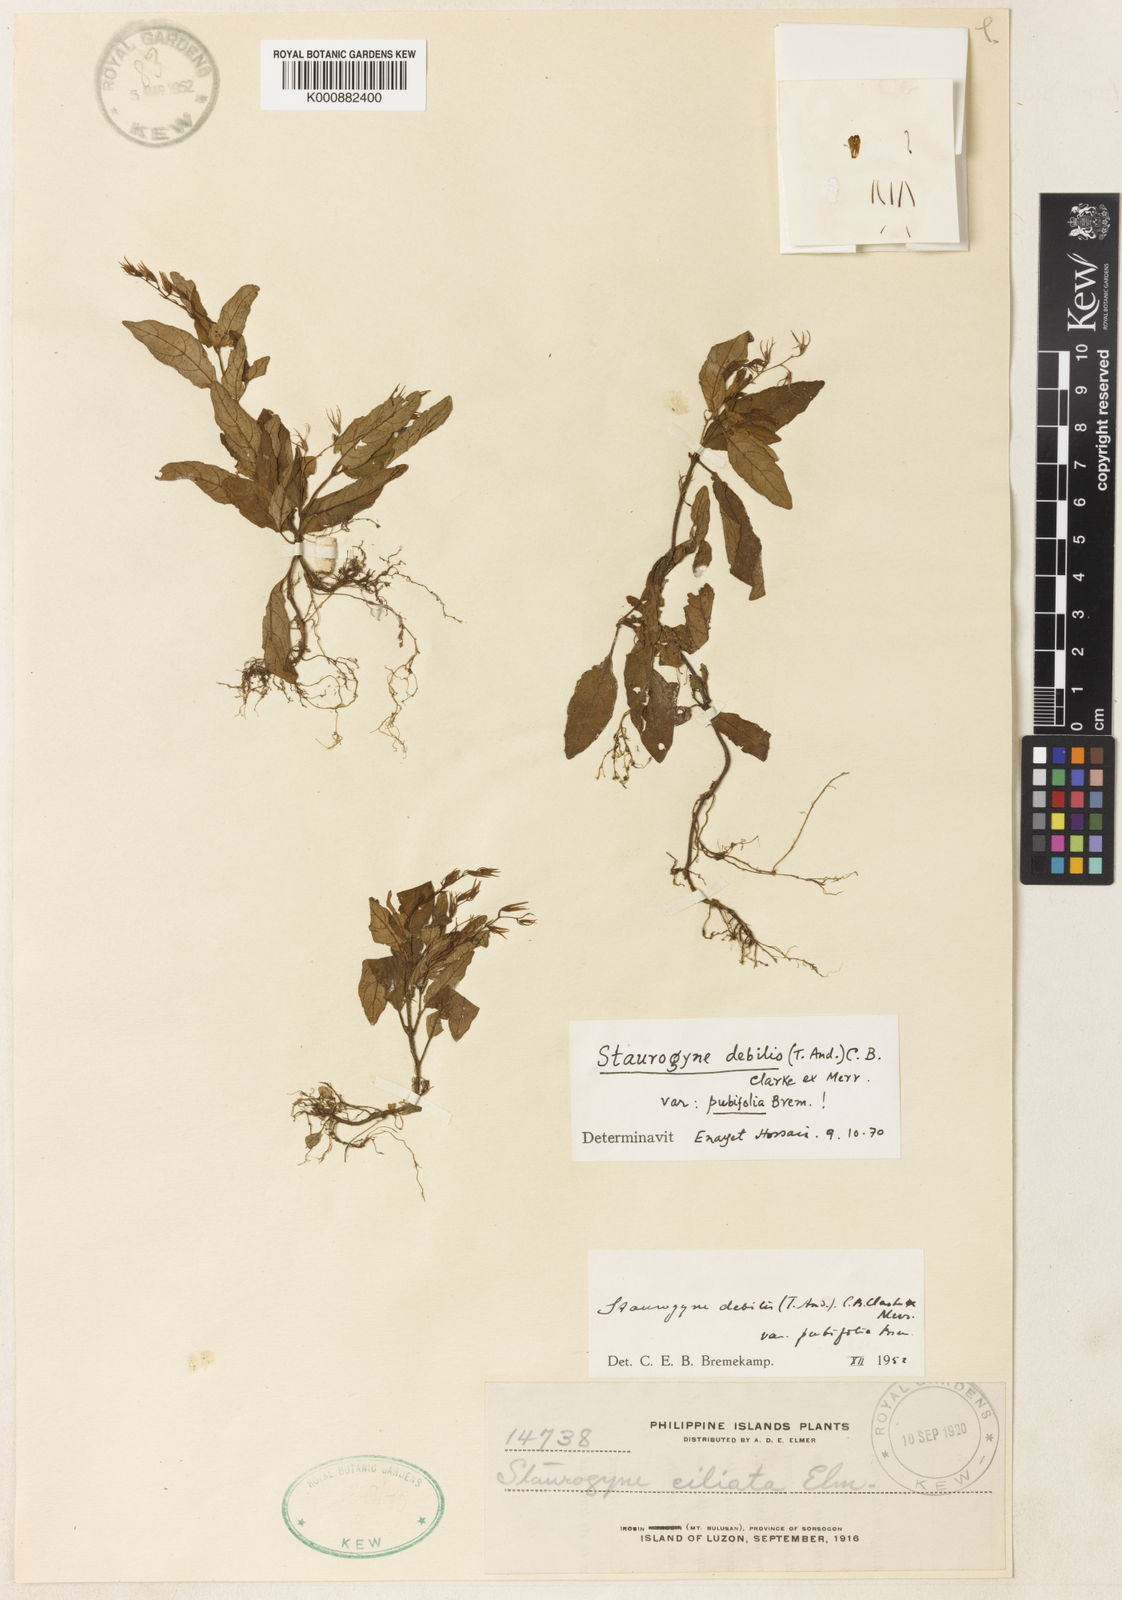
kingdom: Plantae
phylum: Tracheophyta
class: Magnoliopsida
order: Lamiales
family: Acanthaceae
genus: Staurogyne
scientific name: Staurogyne
